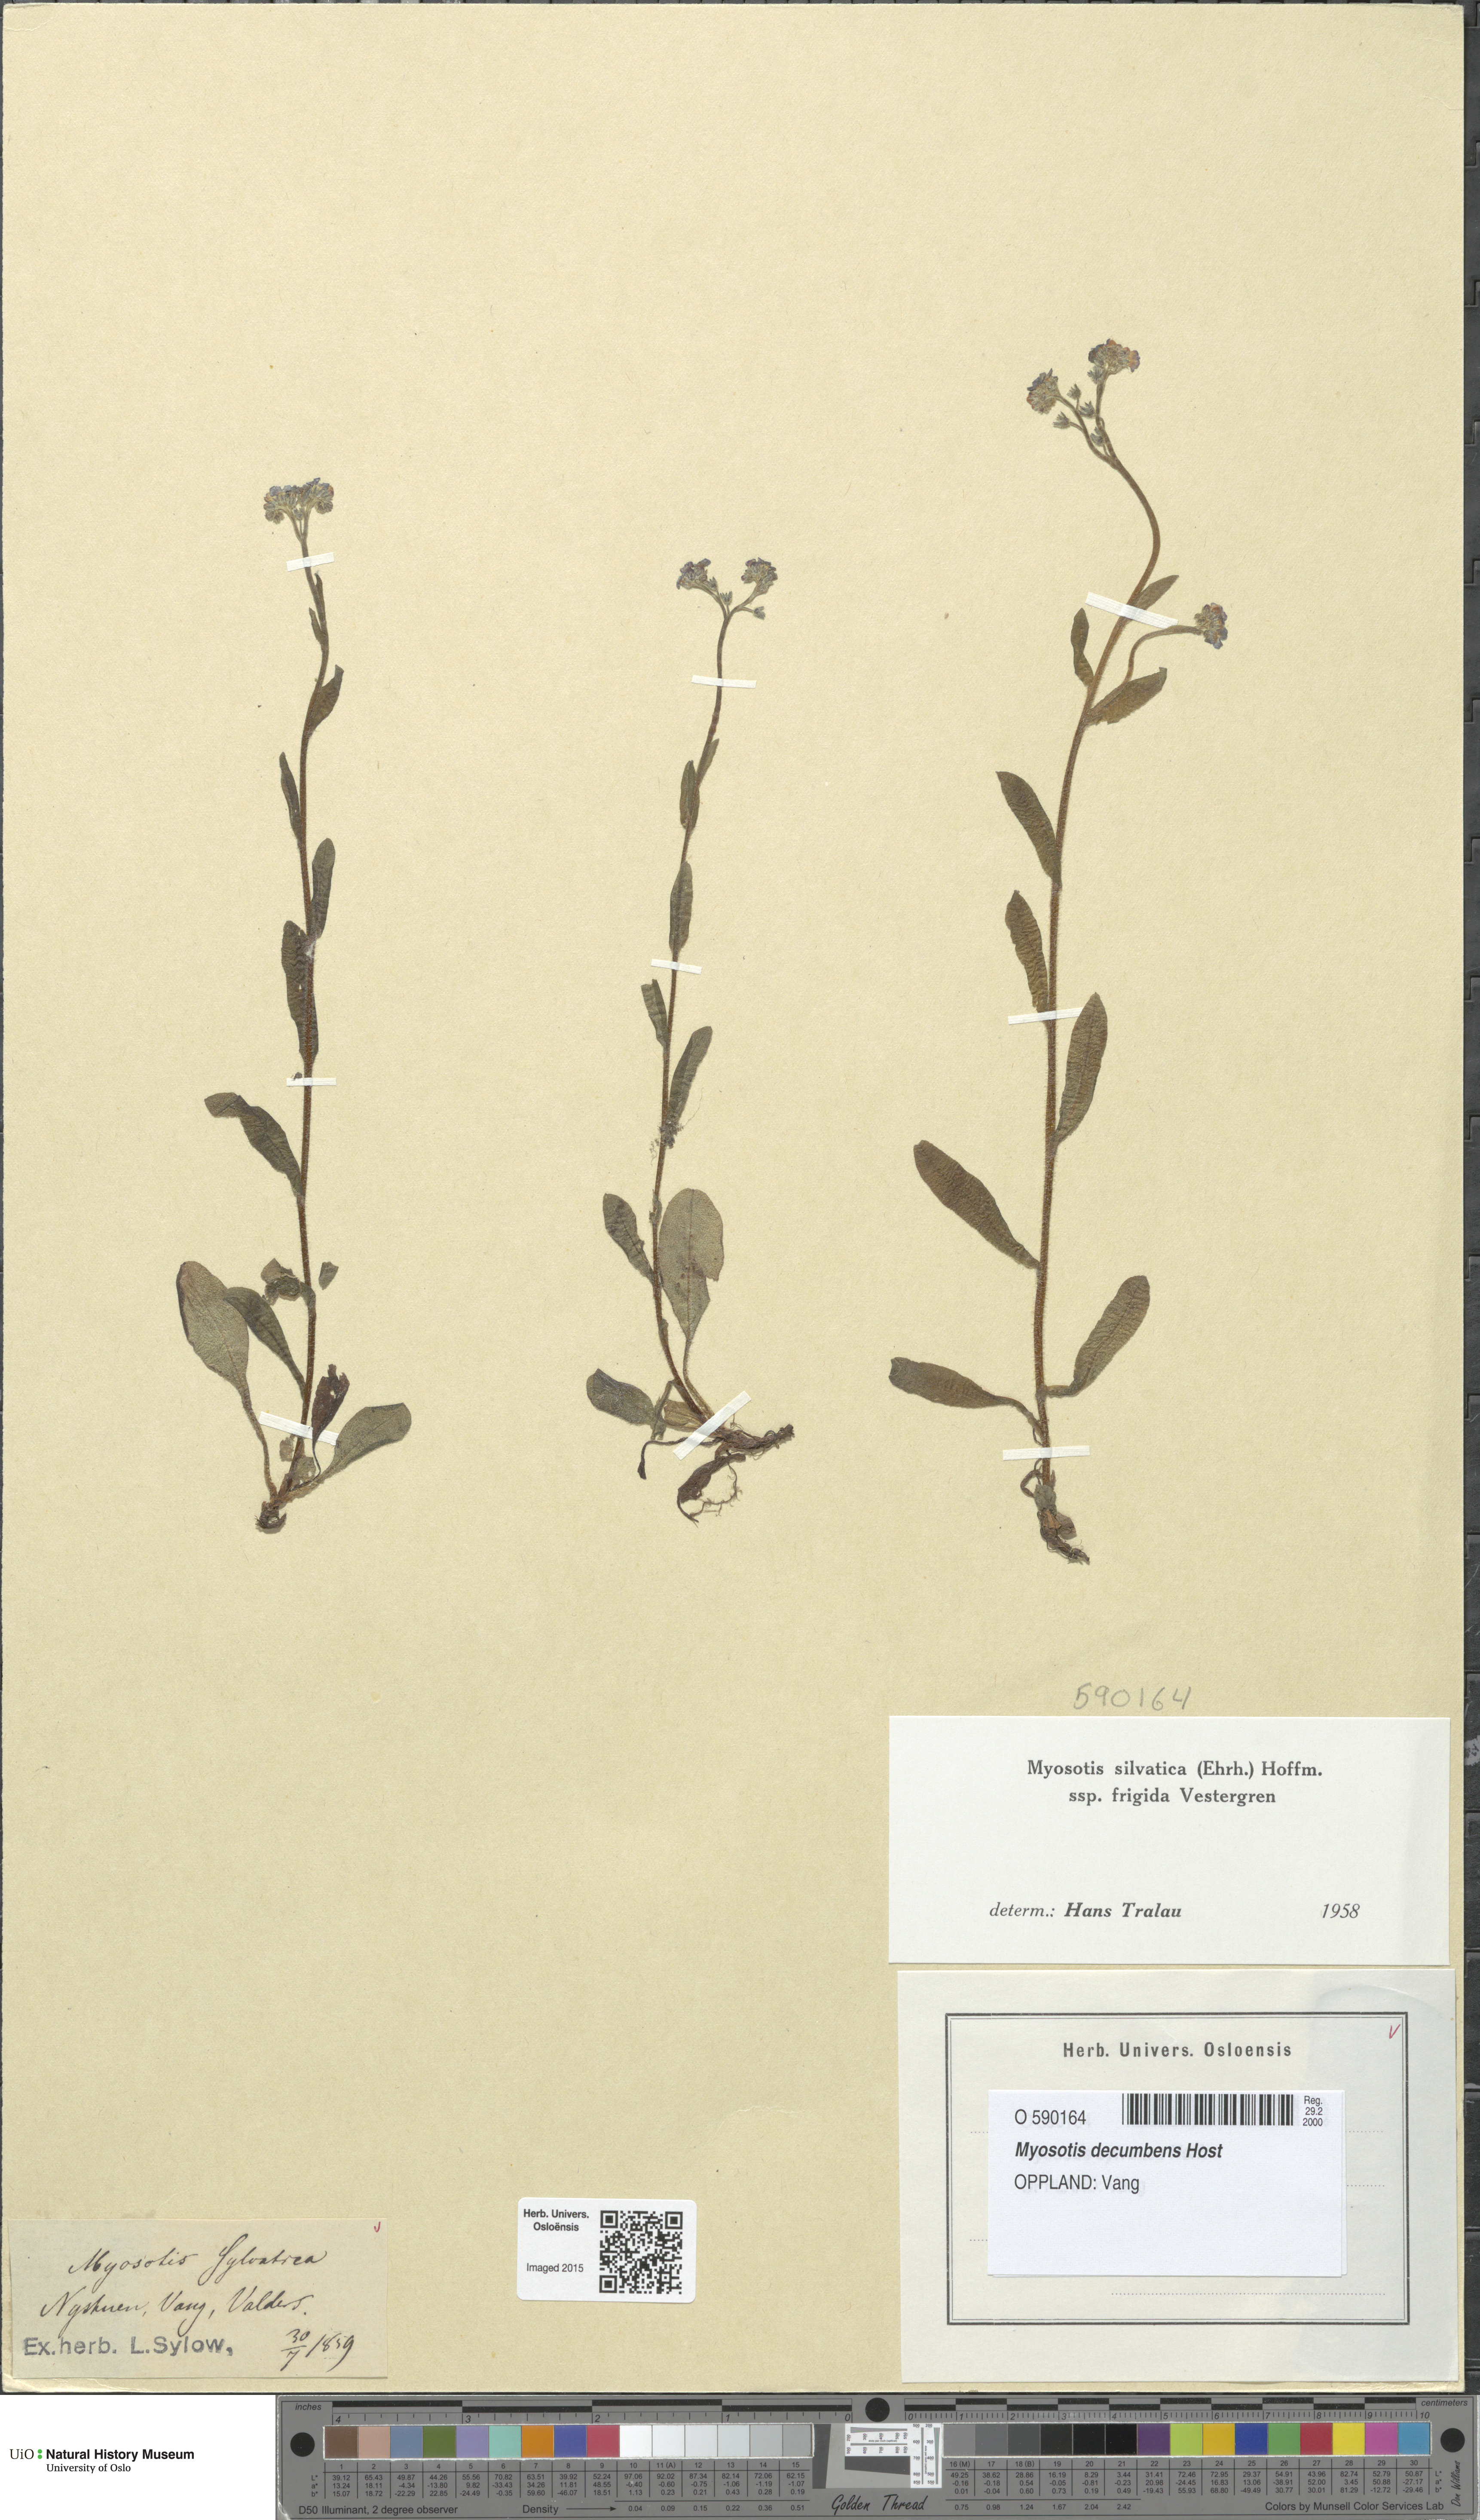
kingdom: Plantae
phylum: Tracheophyta
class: Magnoliopsida
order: Boraginales
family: Boraginaceae
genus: Myosotis
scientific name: Myosotis decumbens
